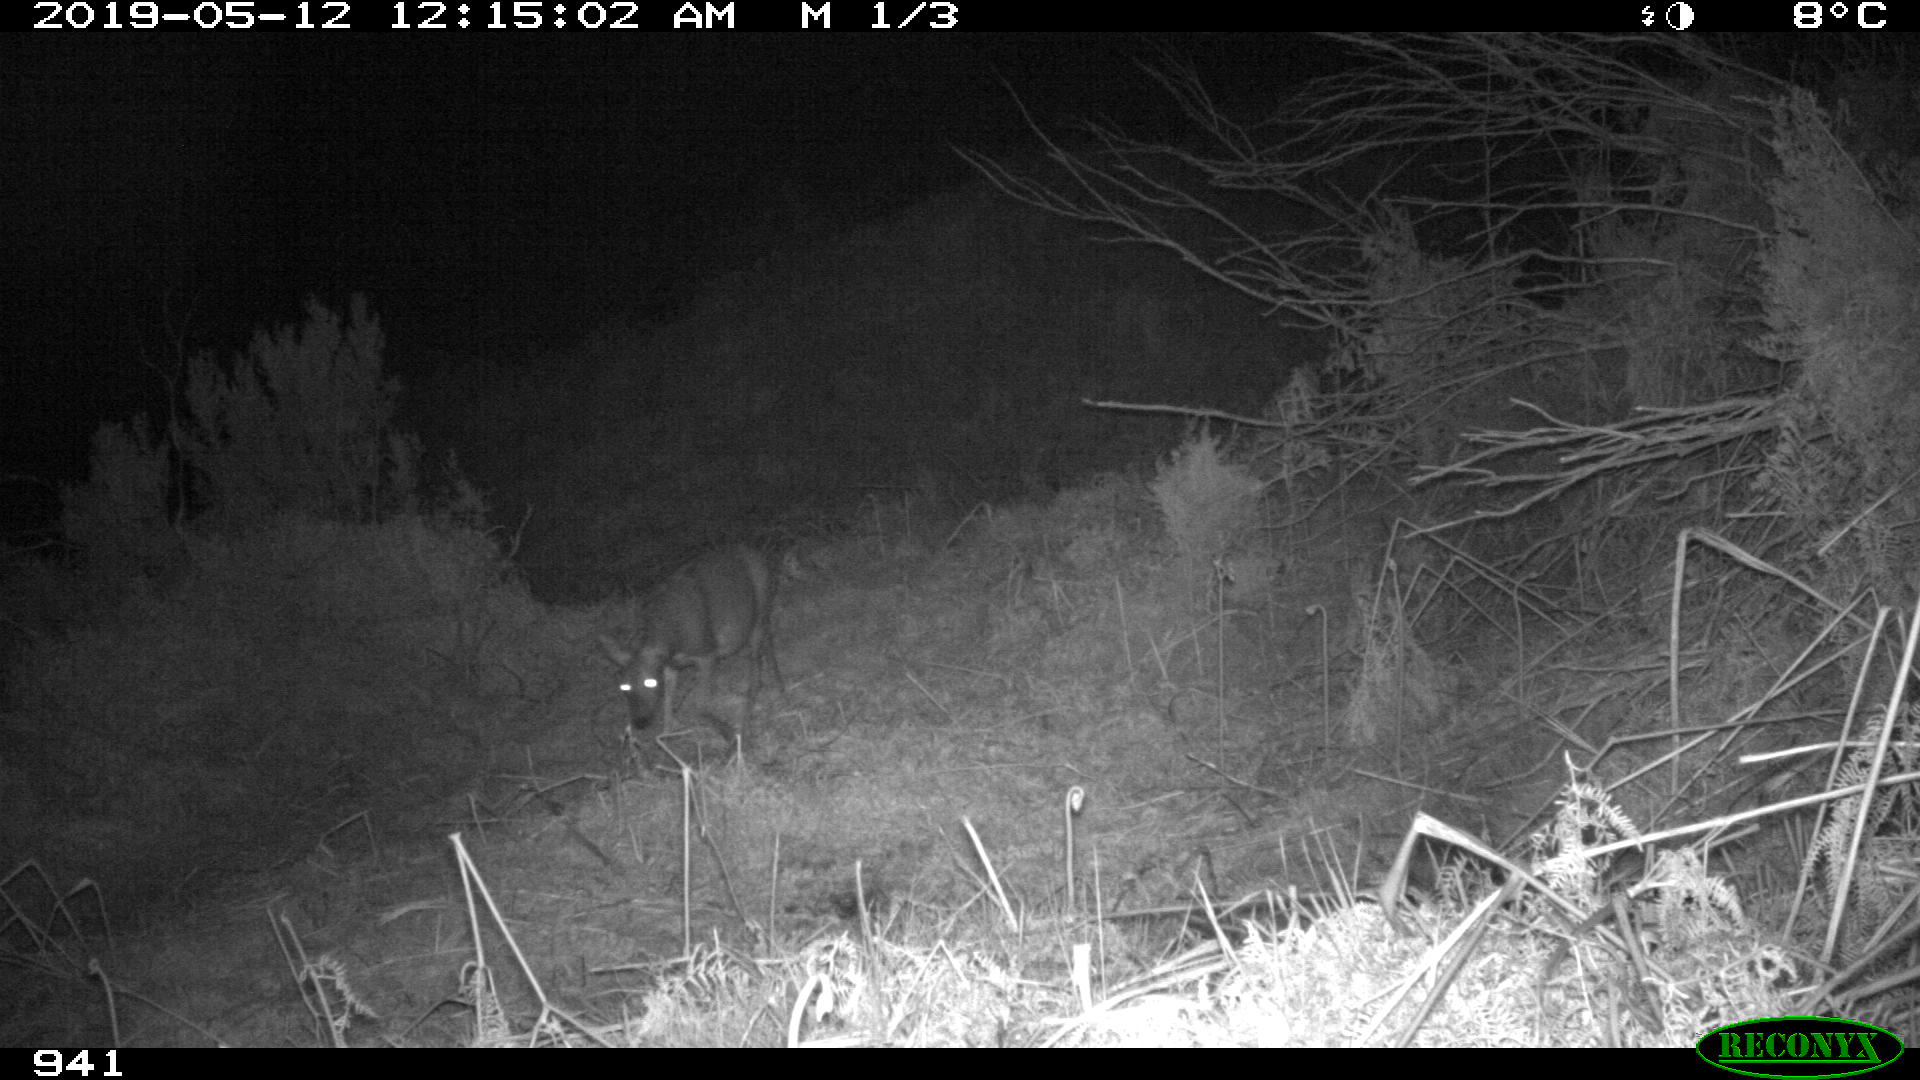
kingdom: Animalia
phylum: Chordata
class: Mammalia
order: Artiodactyla
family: Cervidae
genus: Capreolus
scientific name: Capreolus capreolus
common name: Western roe deer
